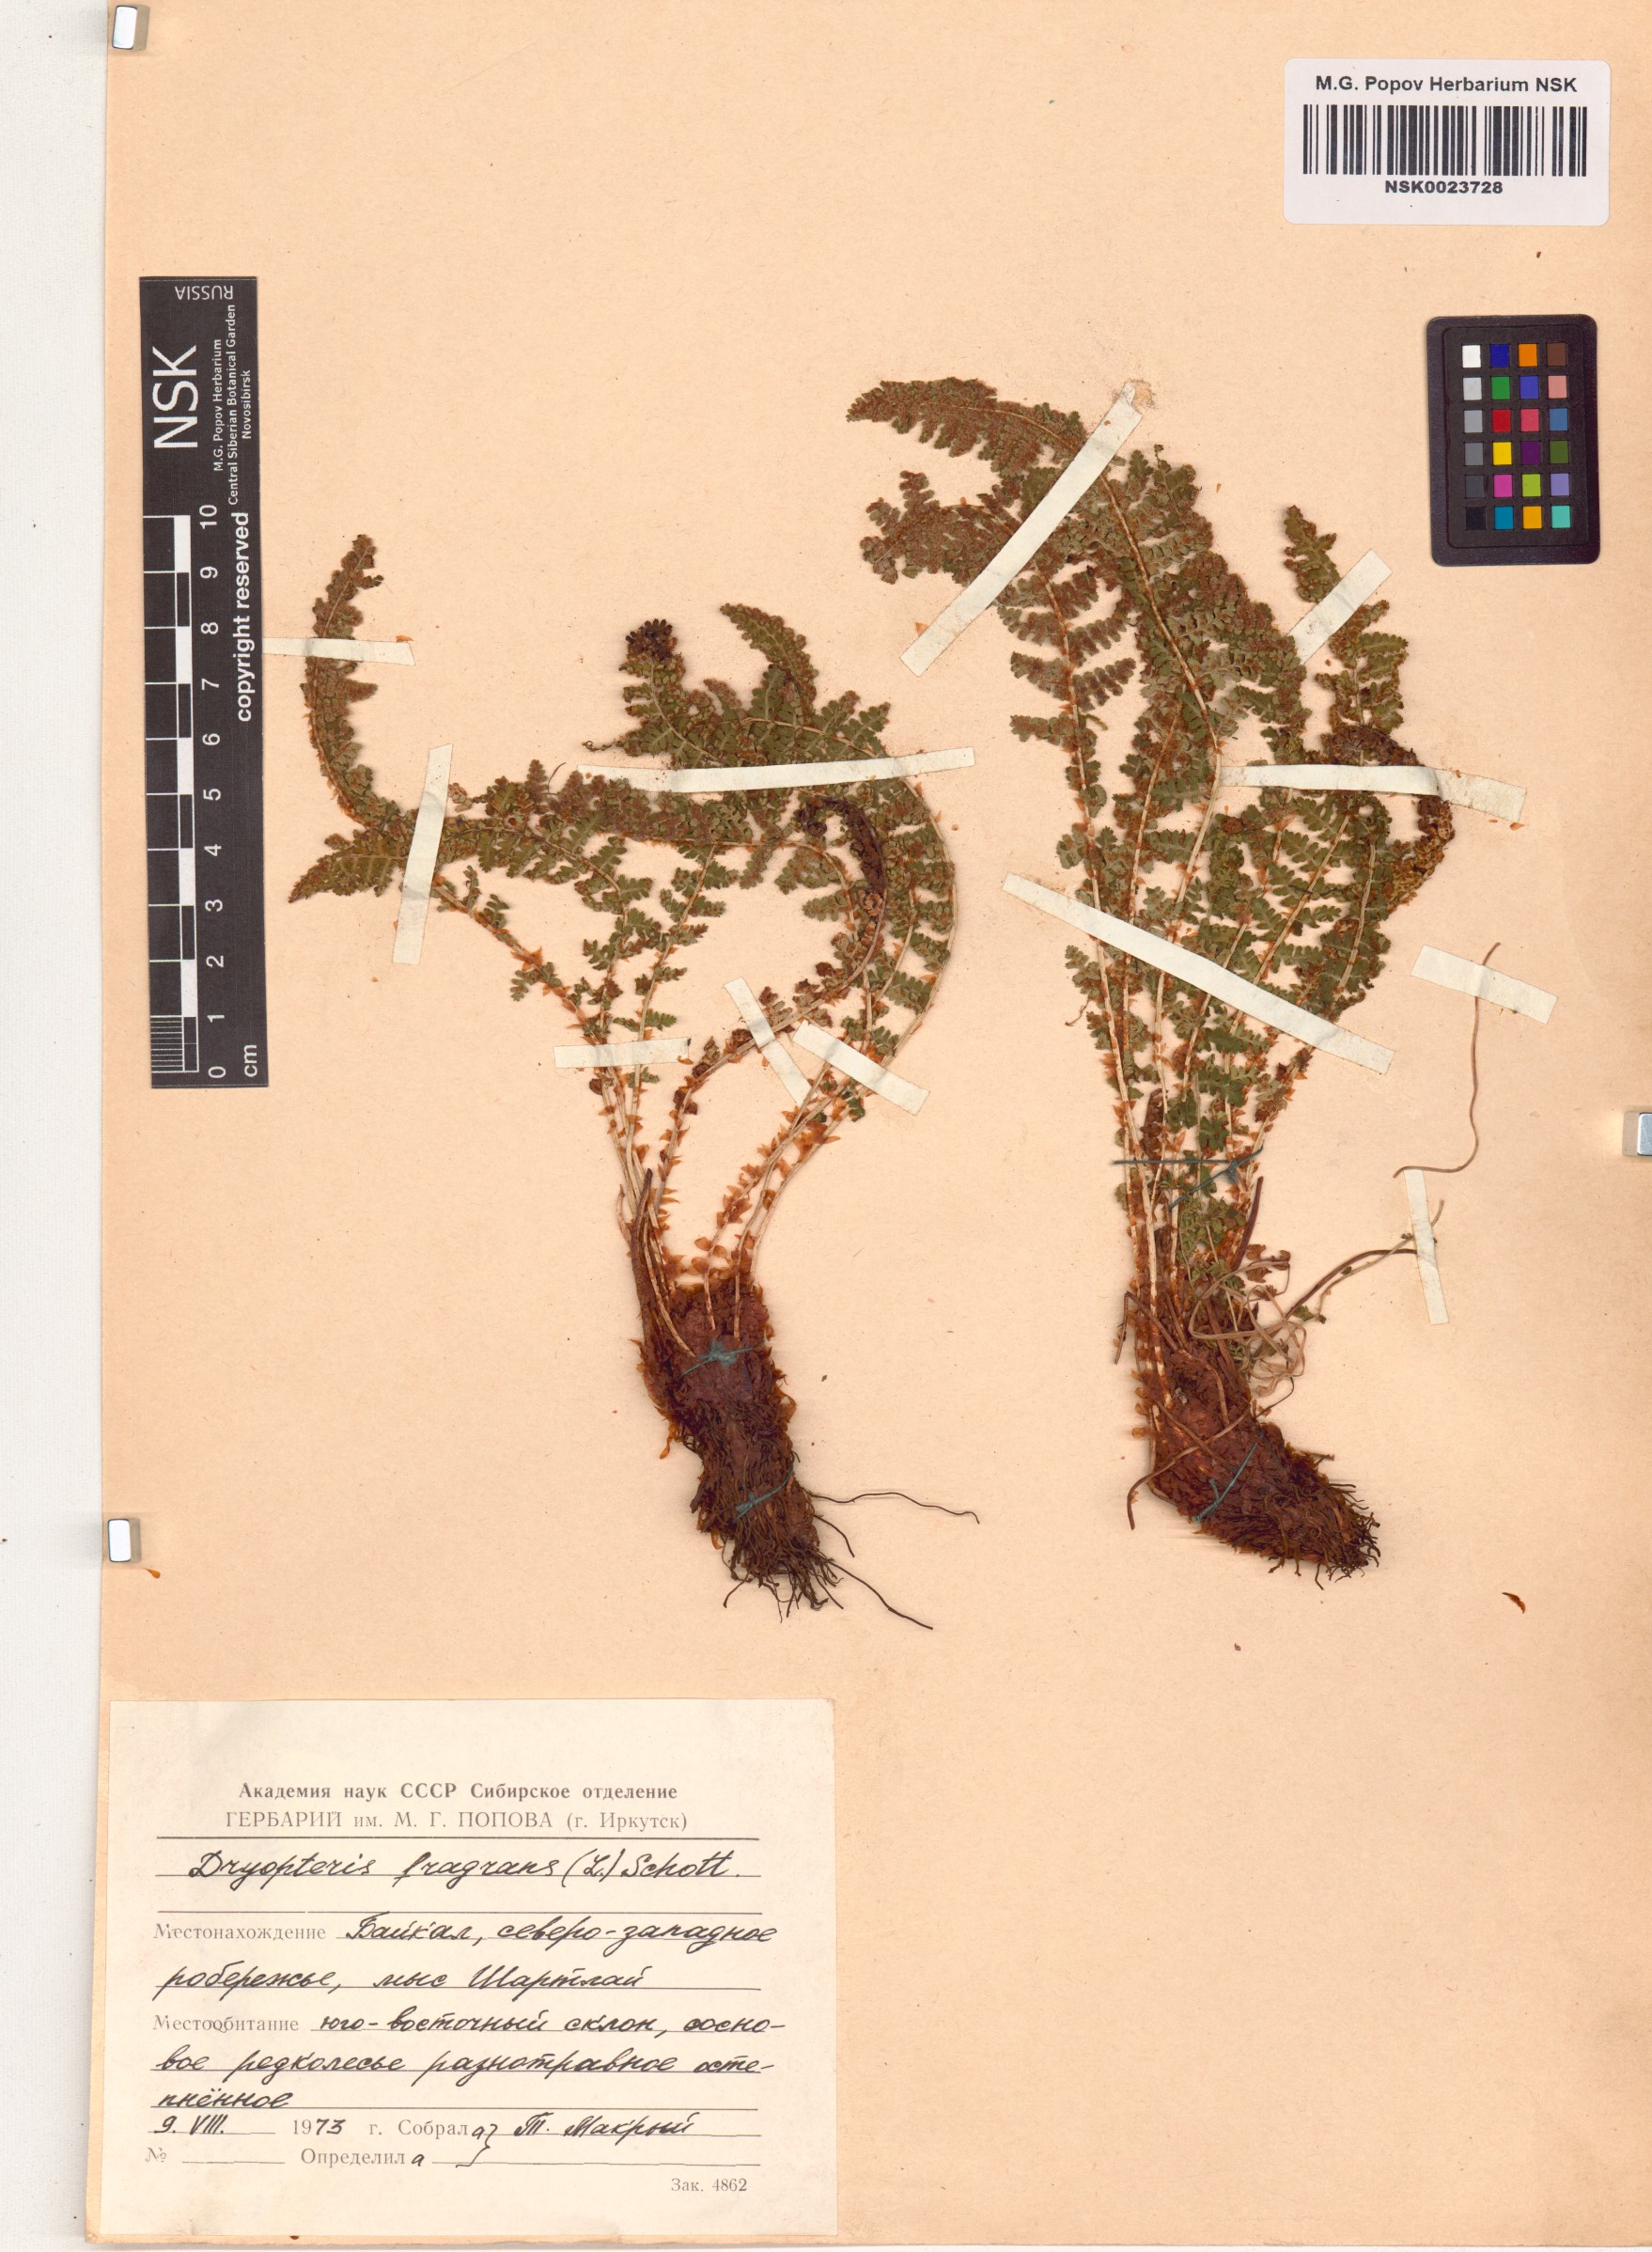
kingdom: Plantae
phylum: Tracheophyta
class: Polypodiopsida
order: Polypodiales
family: Dryopteridaceae
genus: Dryopteris
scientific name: Dryopteris fragrans
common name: Fragrant wood fern
